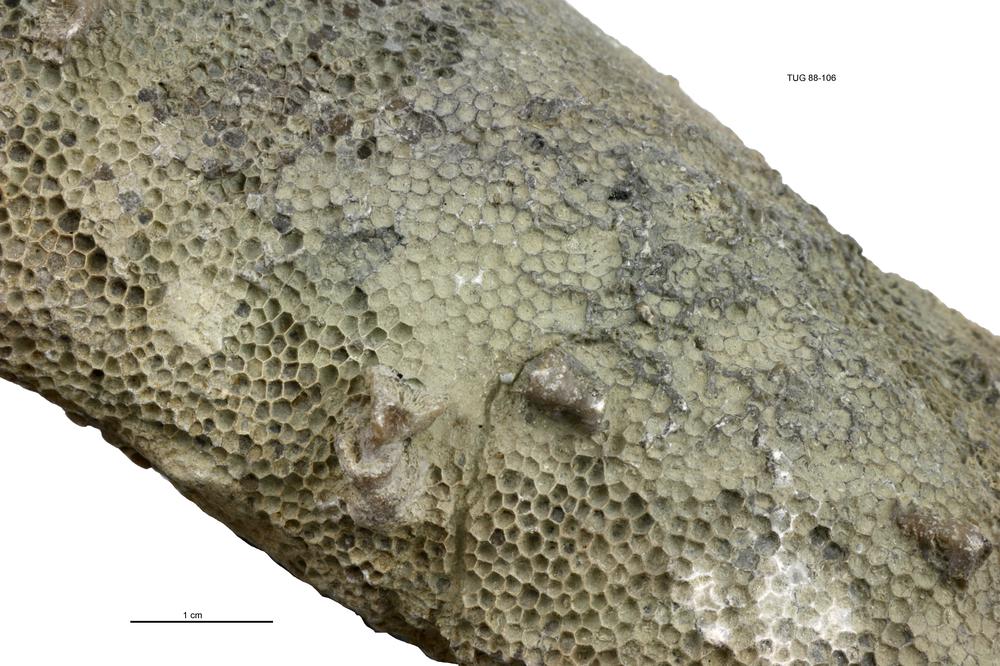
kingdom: Animalia
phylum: Cnidaria
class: Anthozoa
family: Auloporidae
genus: Aulopora
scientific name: Aulopora
